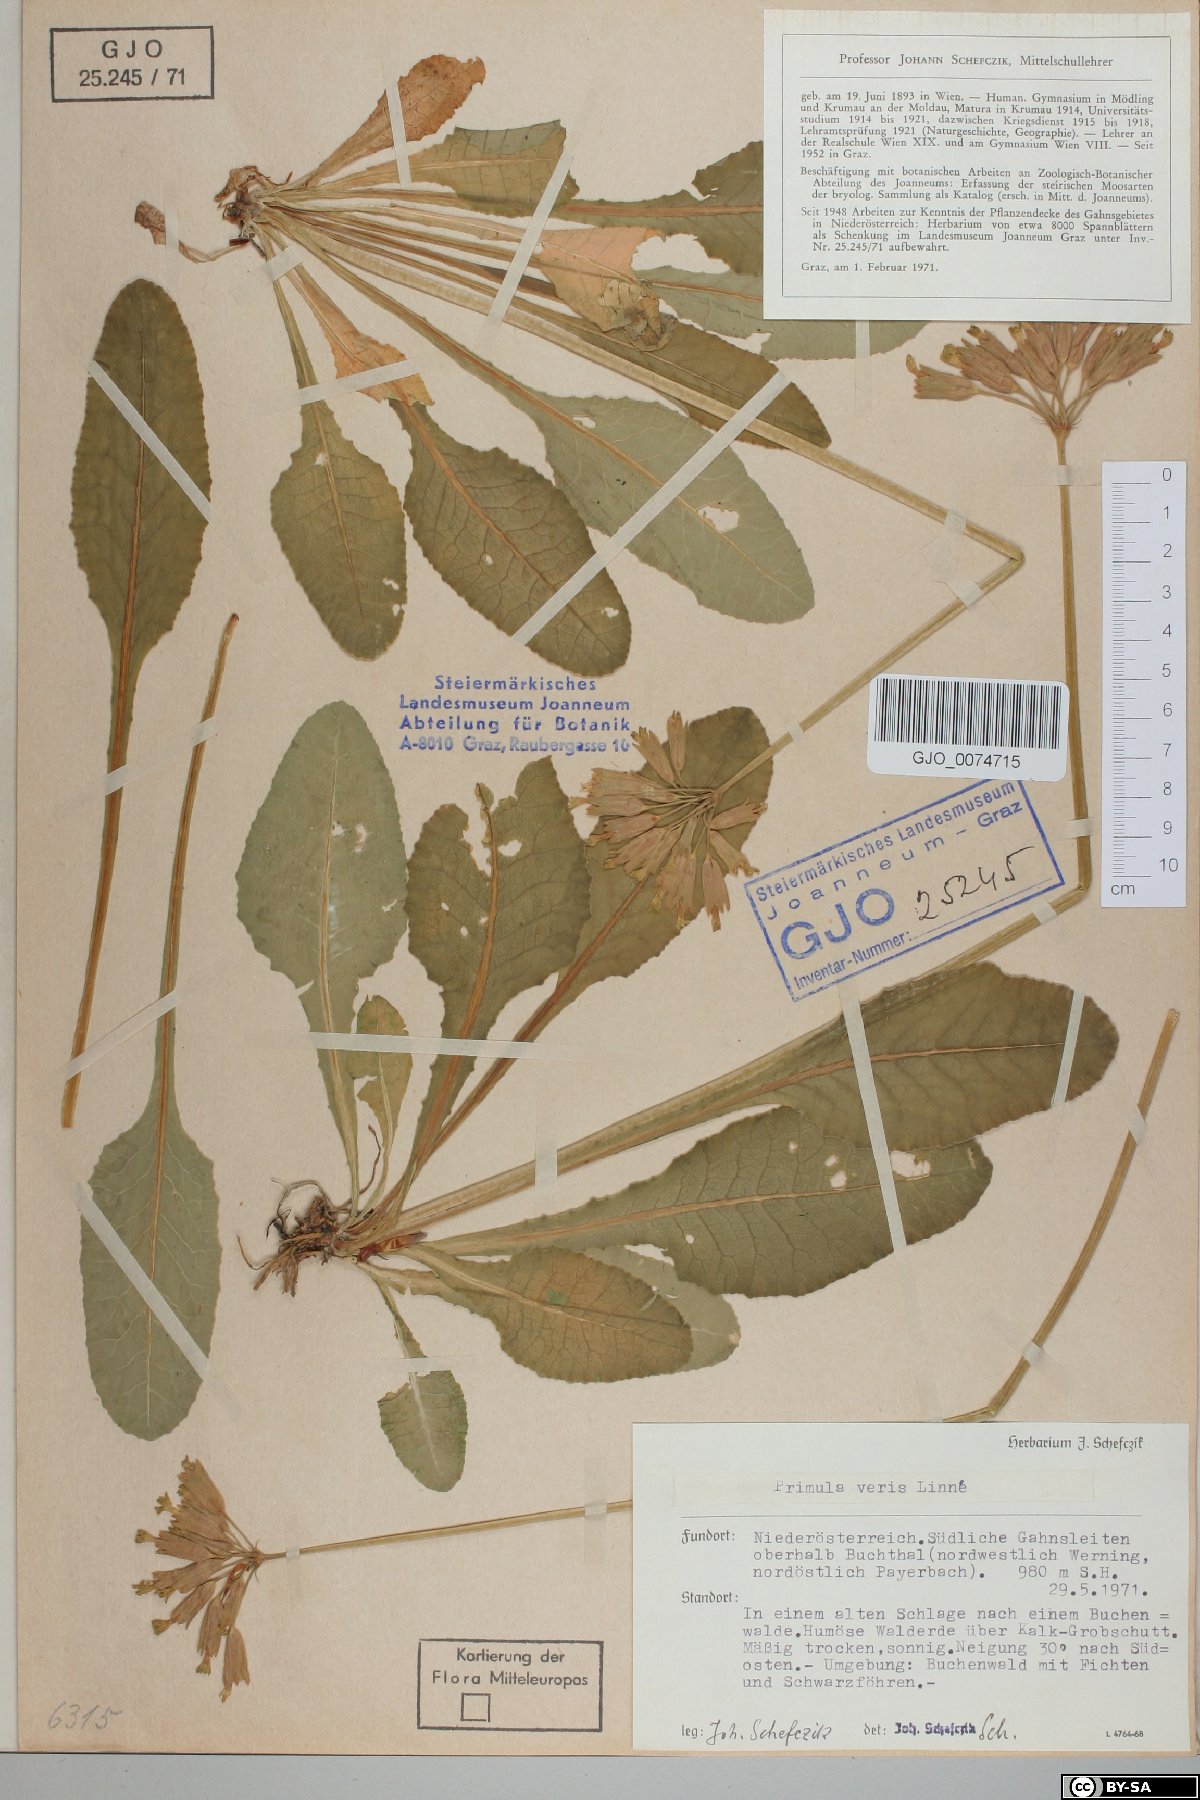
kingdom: Plantae
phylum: Tracheophyta
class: Magnoliopsida
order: Ericales
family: Primulaceae
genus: Primula
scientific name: Primula veris
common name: Cowslip
